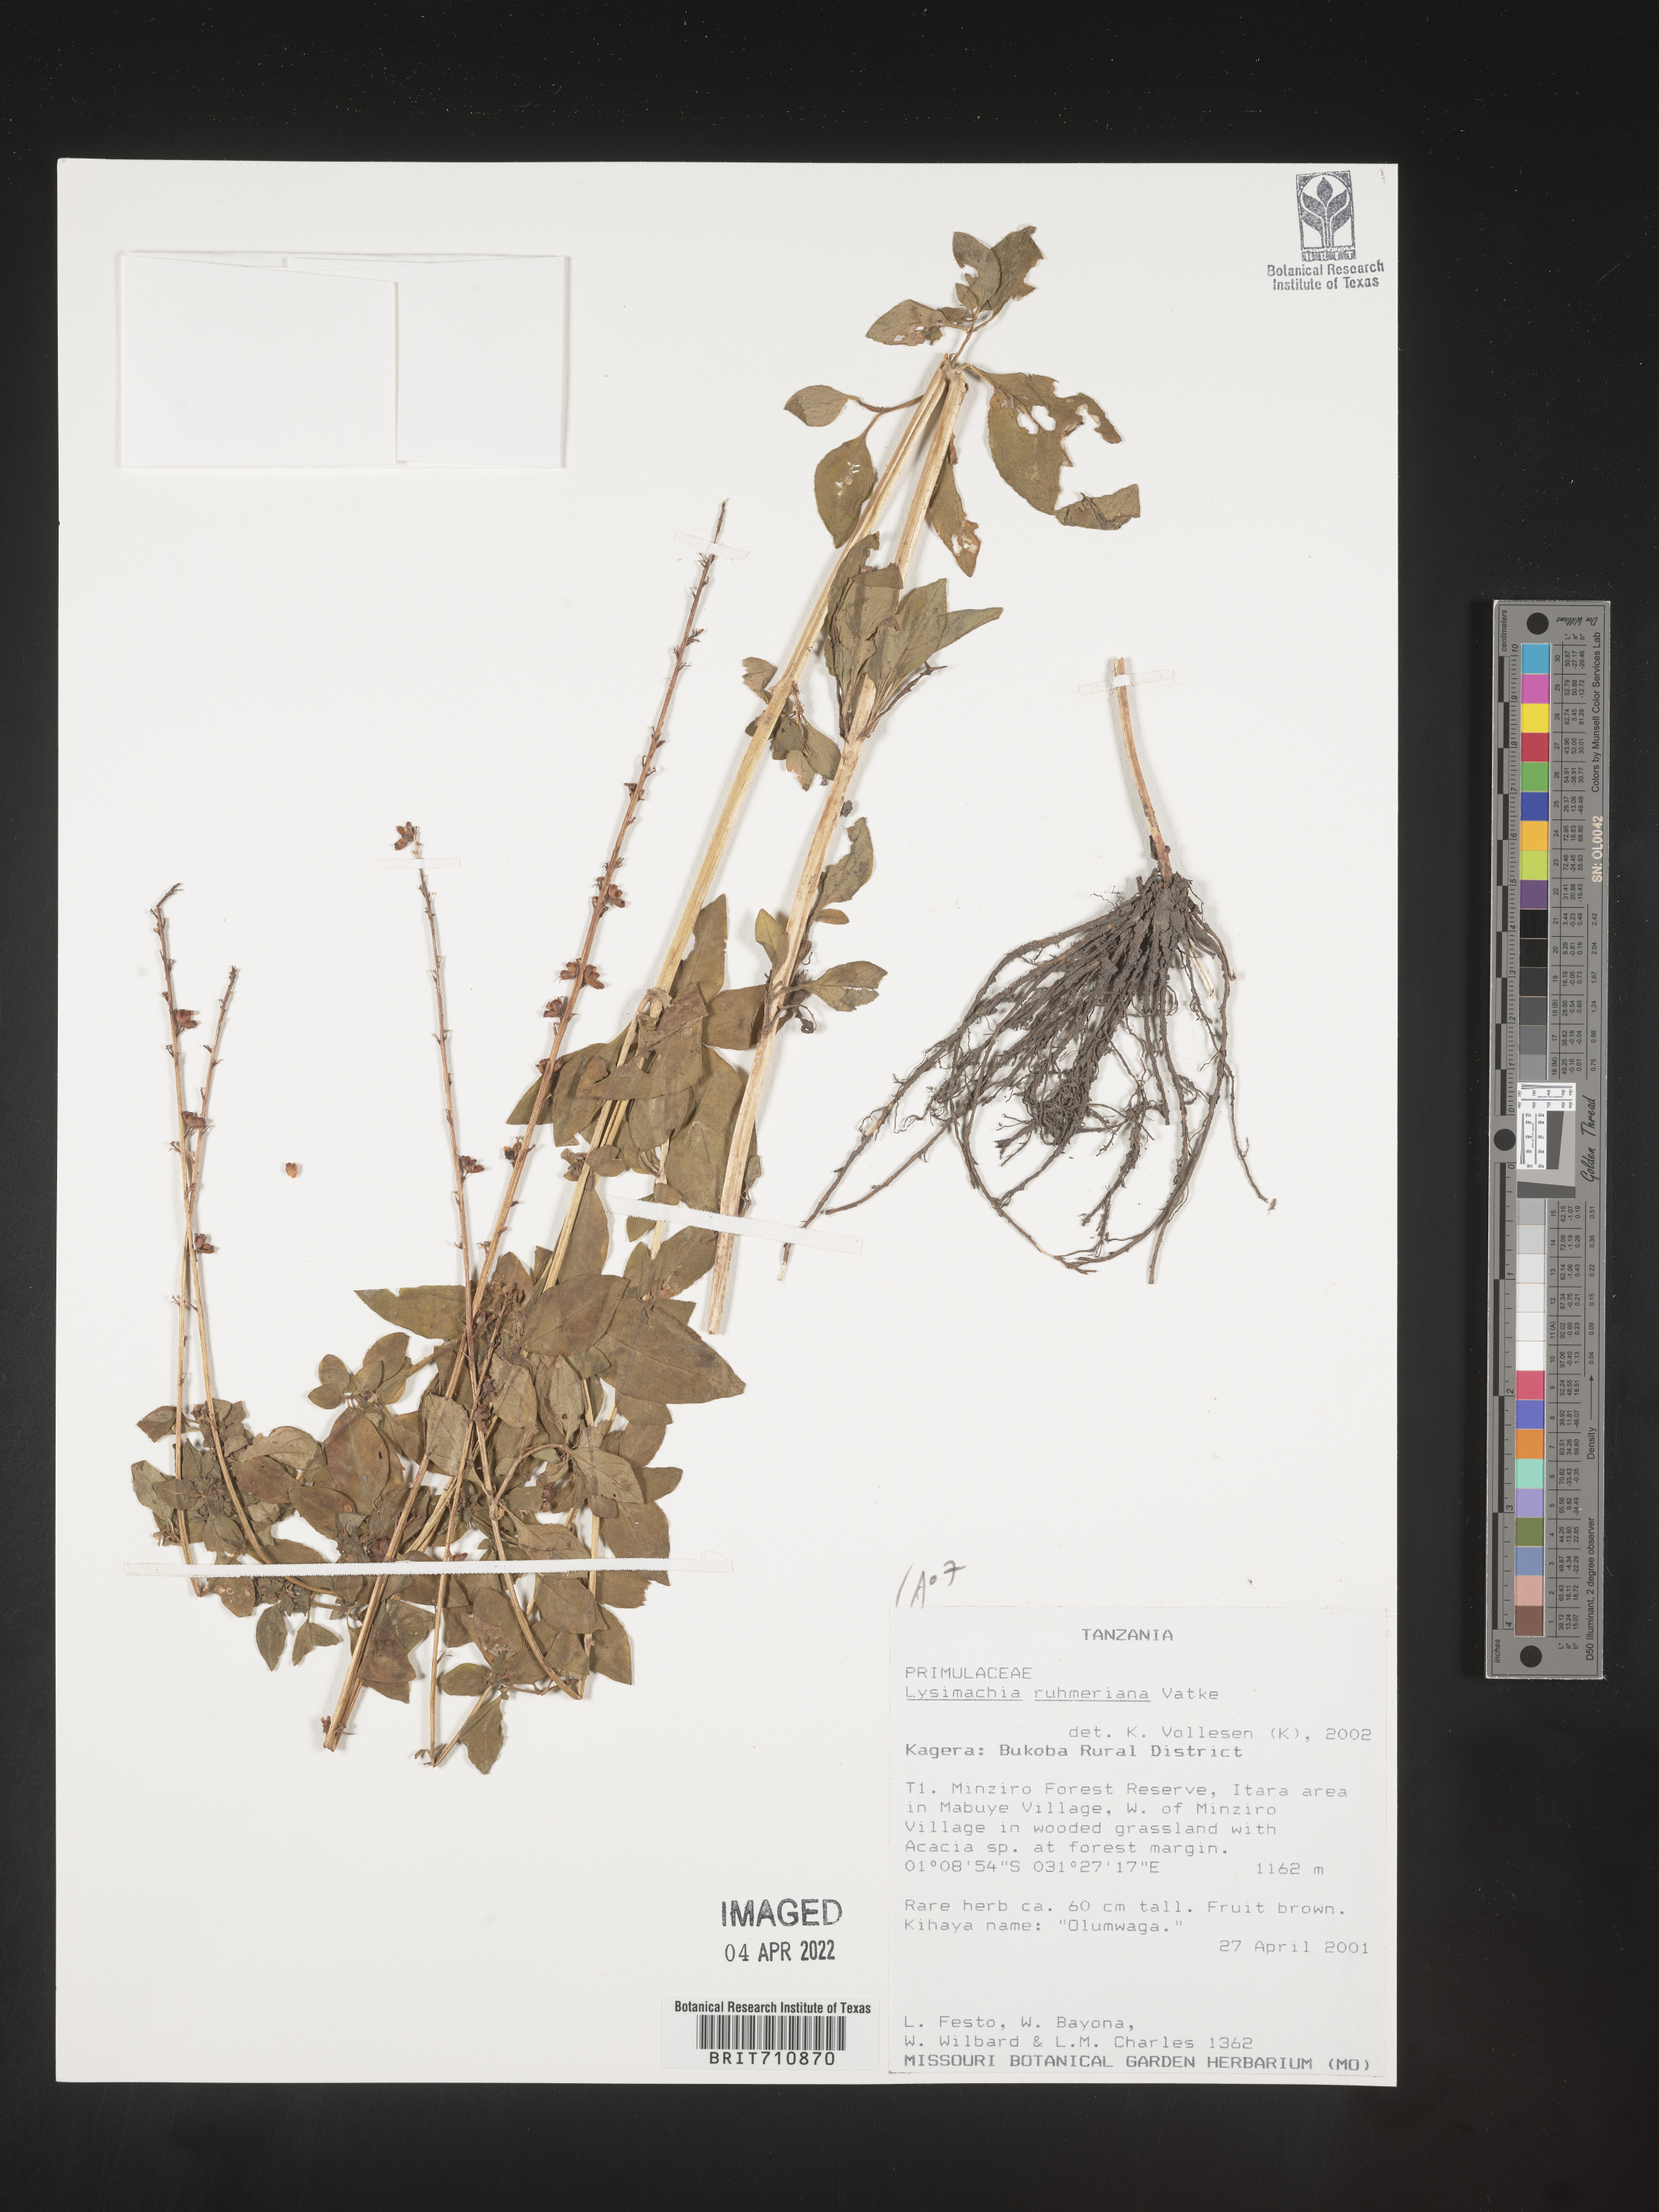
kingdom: Plantae
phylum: Tracheophyta
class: Magnoliopsida
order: Ericales
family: Primulaceae
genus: Lysimachia
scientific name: Lysimachia
